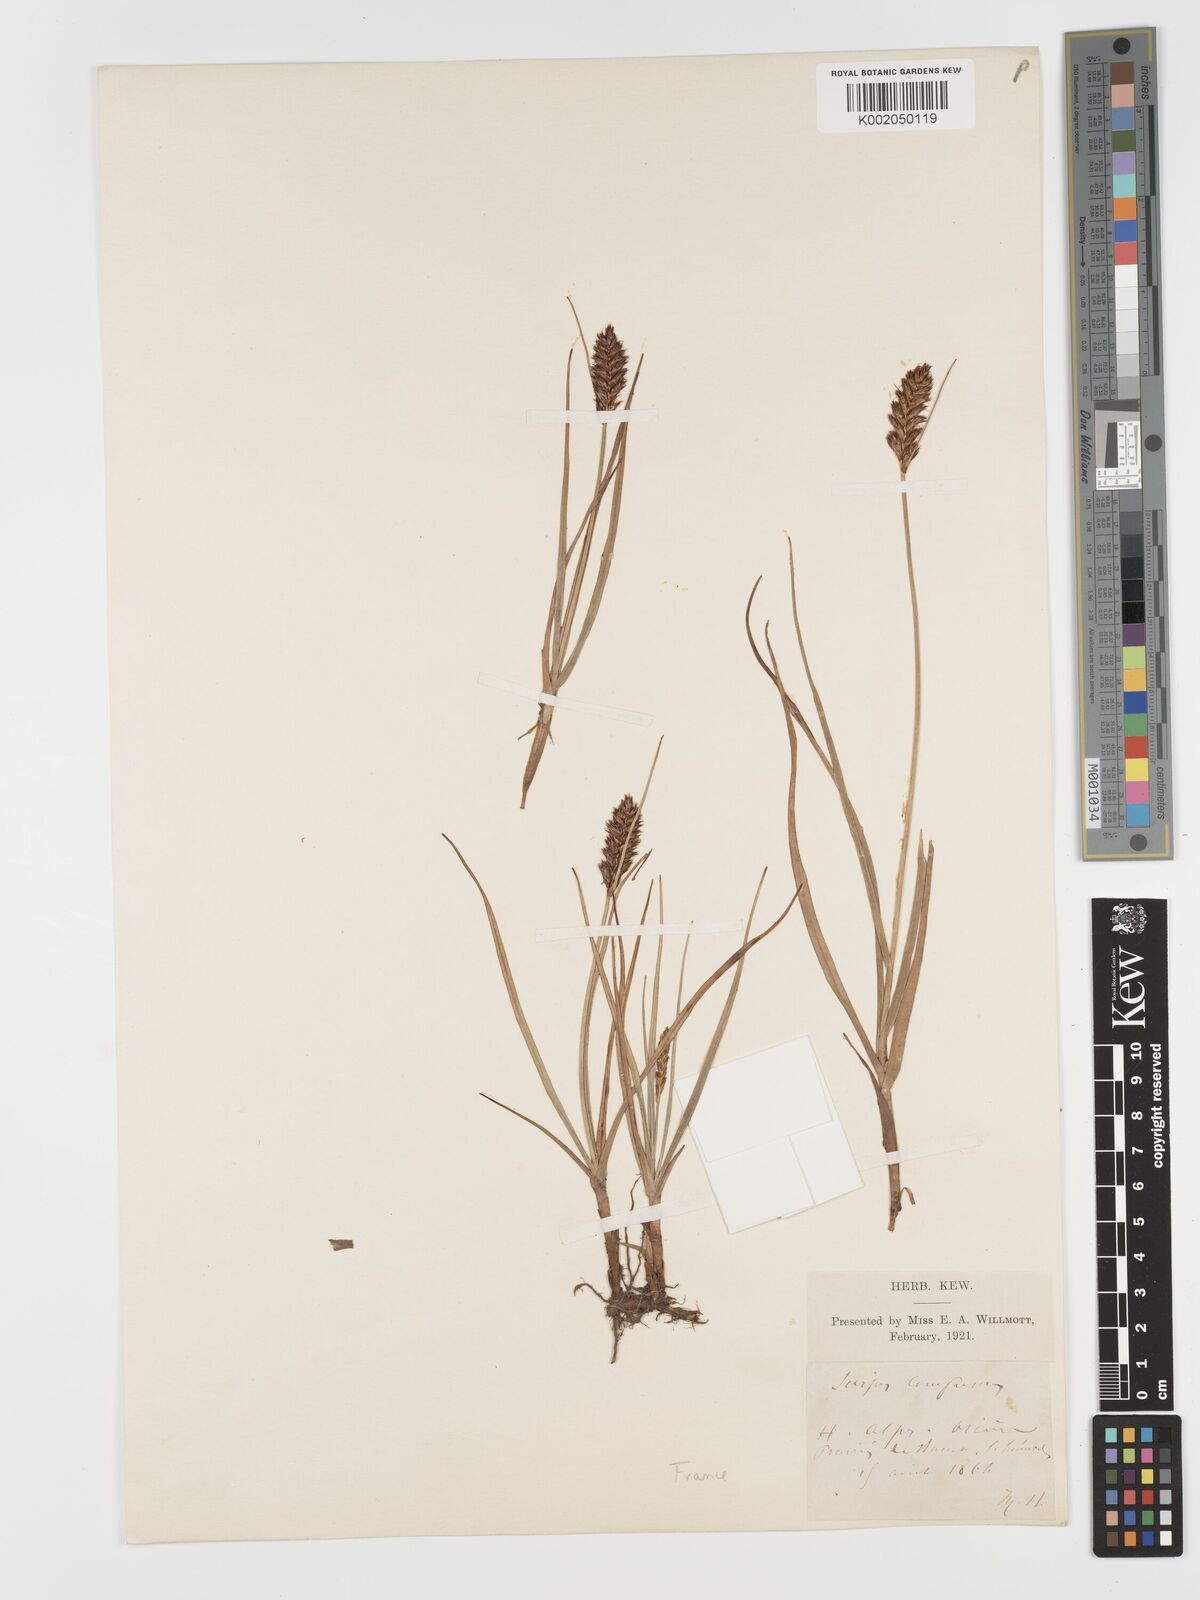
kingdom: Plantae
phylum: Tracheophyta
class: Liliopsida
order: Poales
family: Cyperaceae
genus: Blysmus
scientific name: Blysmus compressus
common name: Flat-sedge
